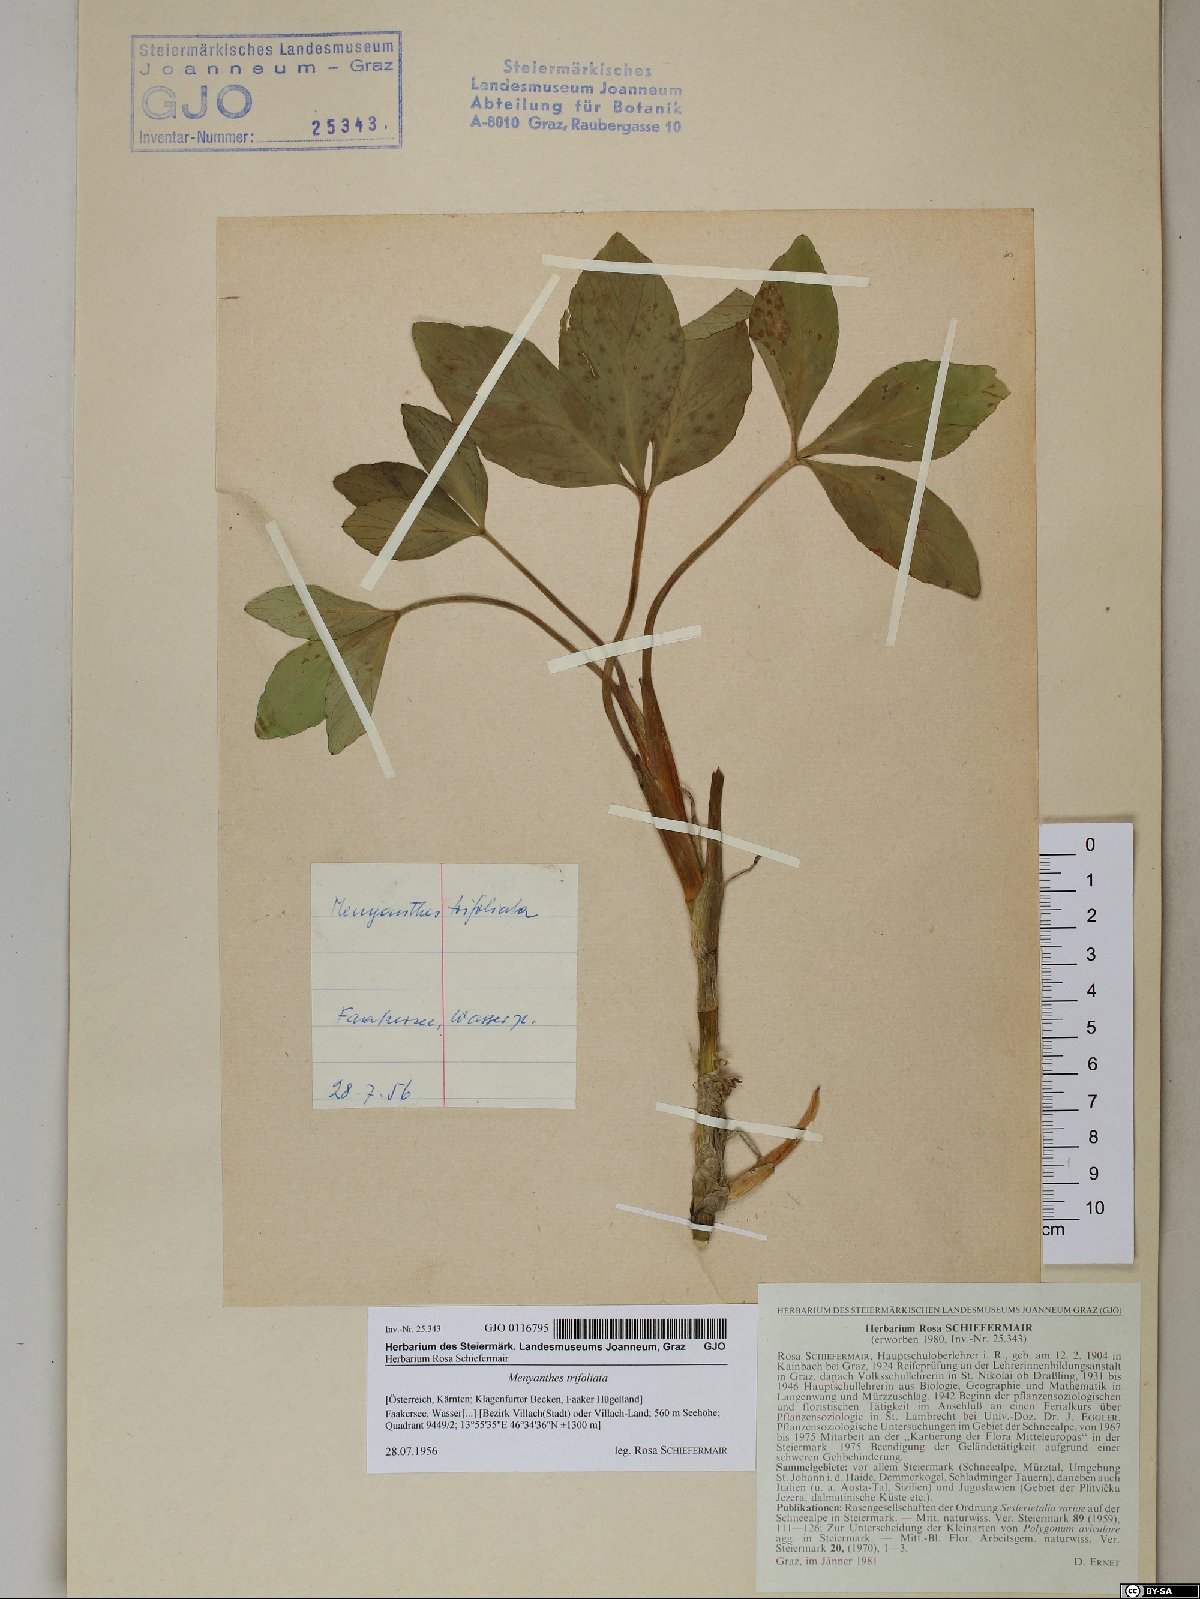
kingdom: Plantae
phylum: Tracheophyta
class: Magnoliopsida
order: Asterales
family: Menyanthaceae
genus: Menyanthes
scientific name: Menyanthes trifoliata
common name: Bogbean
